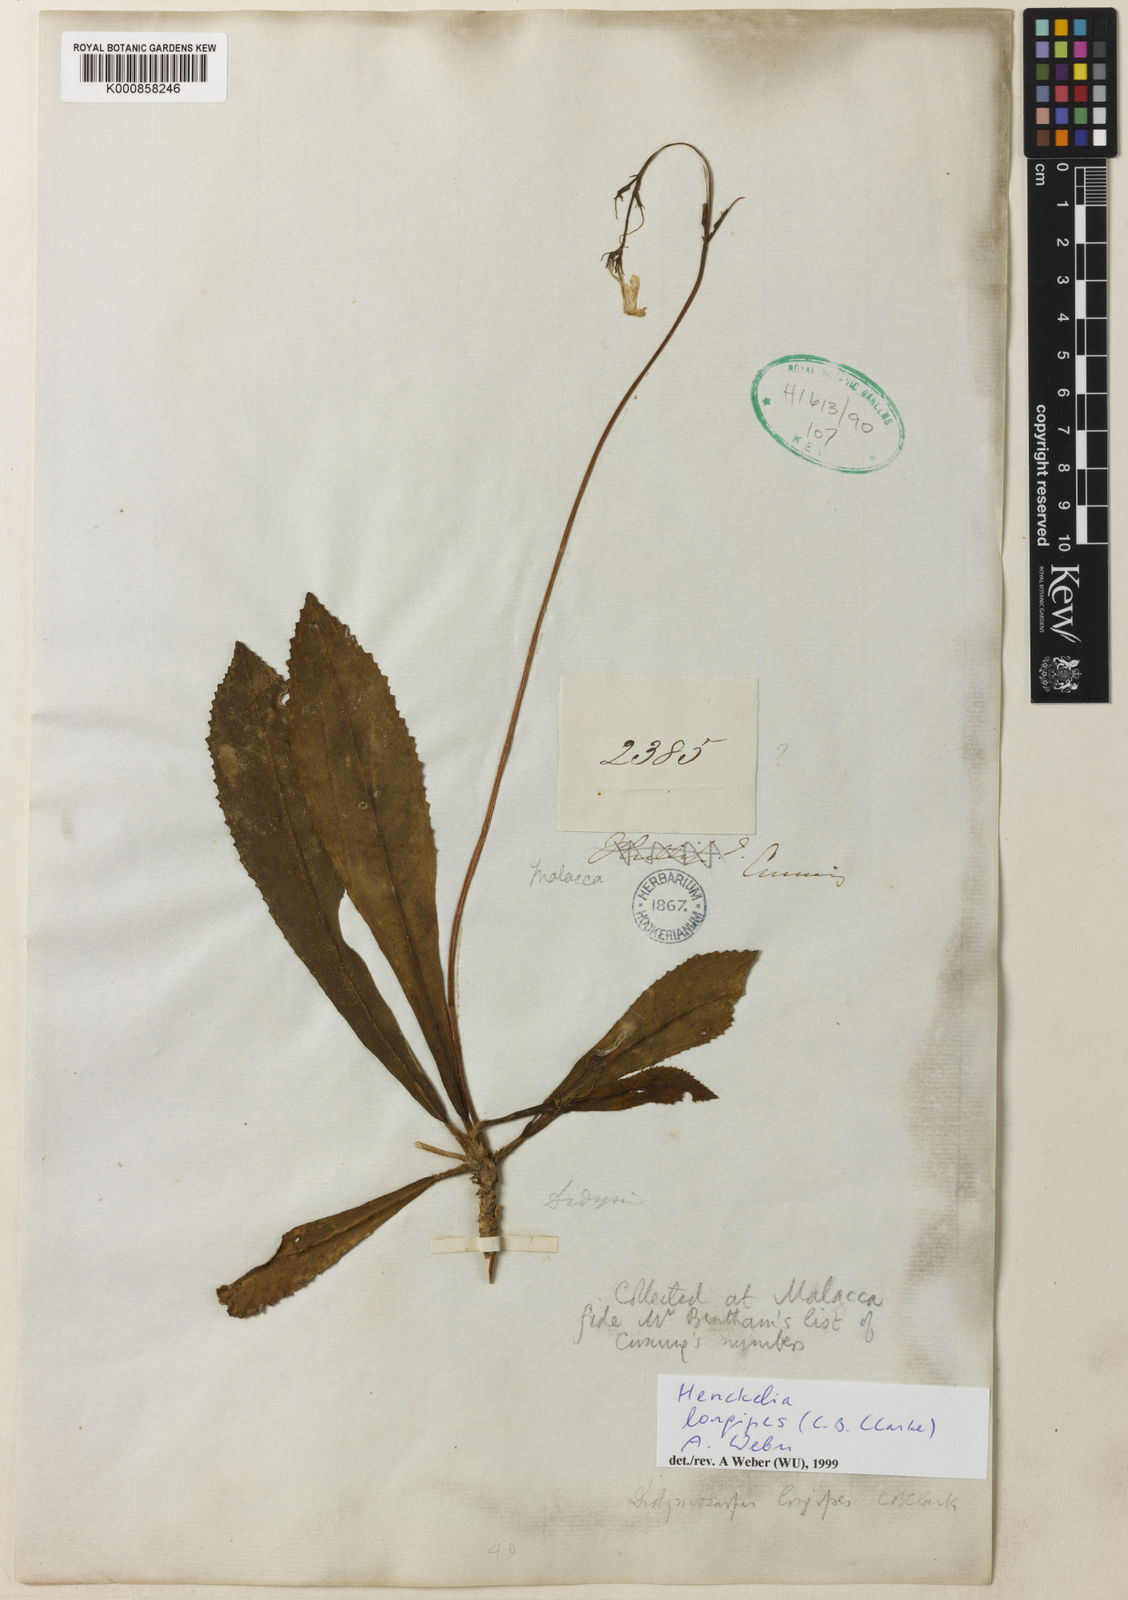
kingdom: Plantae
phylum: Tracheophyta
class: Magnoliopsida
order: Lamiales
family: Gesneriaceae
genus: Codonoboea
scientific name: Codonoboea longipes
